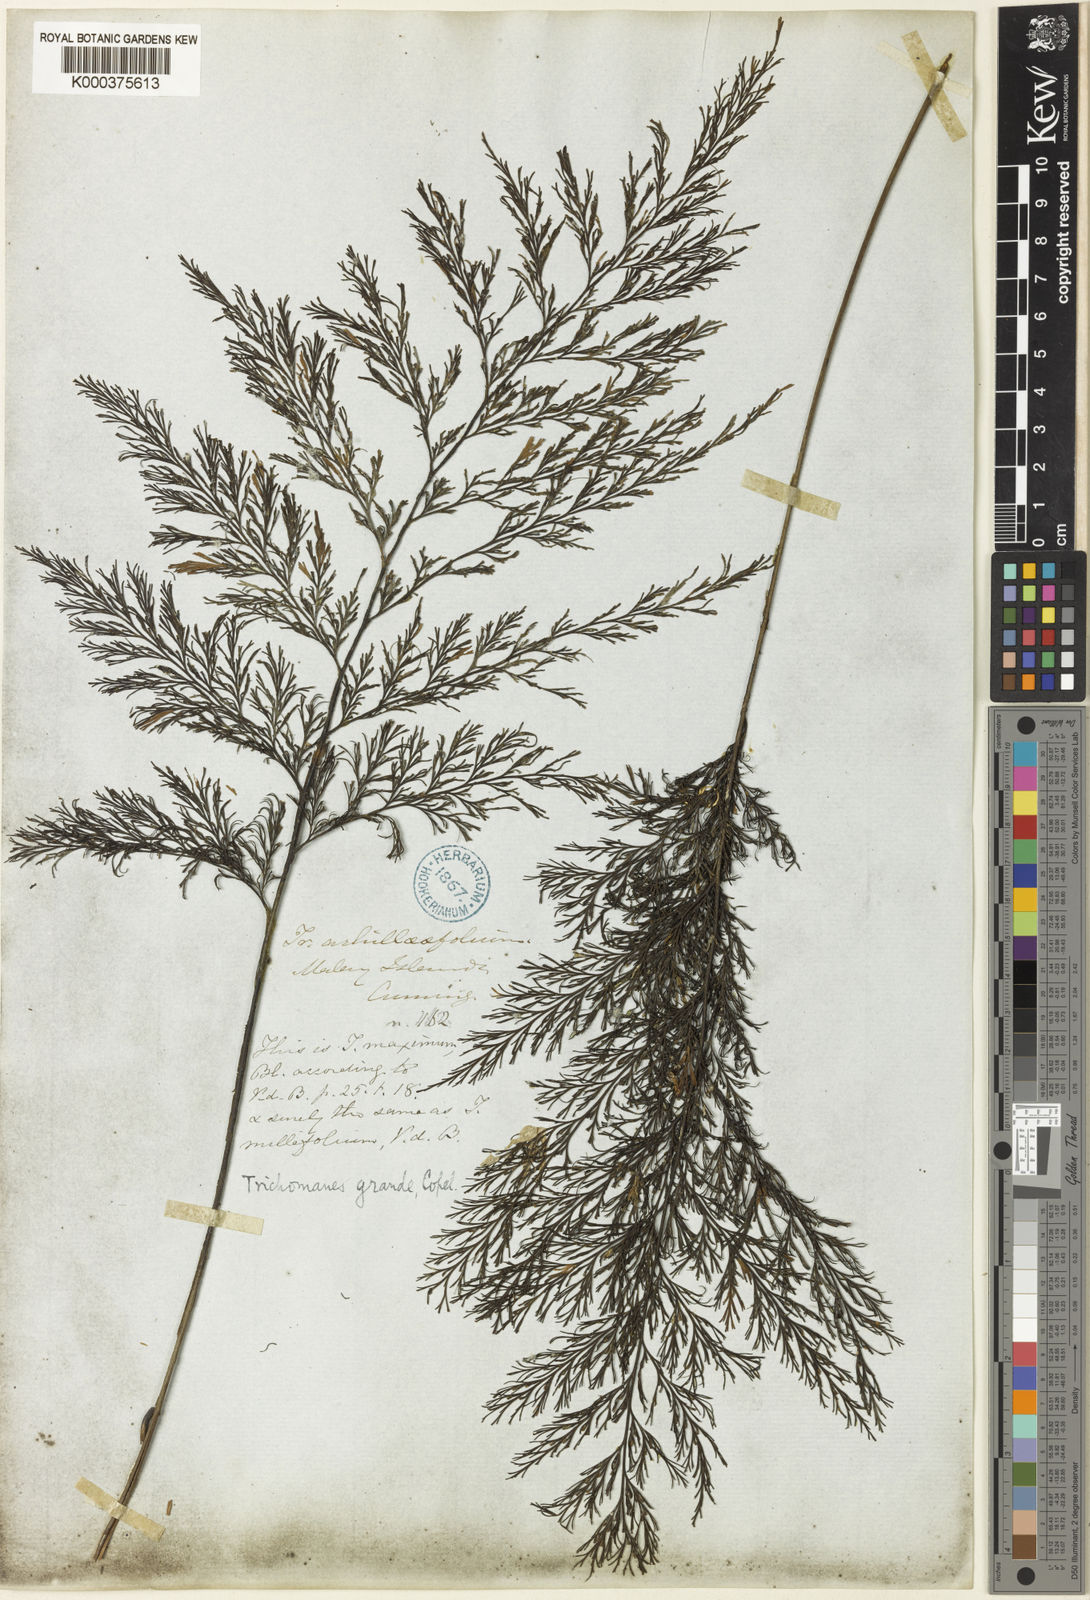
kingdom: Plantae
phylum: Tracheophyta
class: Polypodiopsida
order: Hymenophyllales
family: Hymenophyllaceae
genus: Crepidomanes
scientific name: Crepidomanes grande
